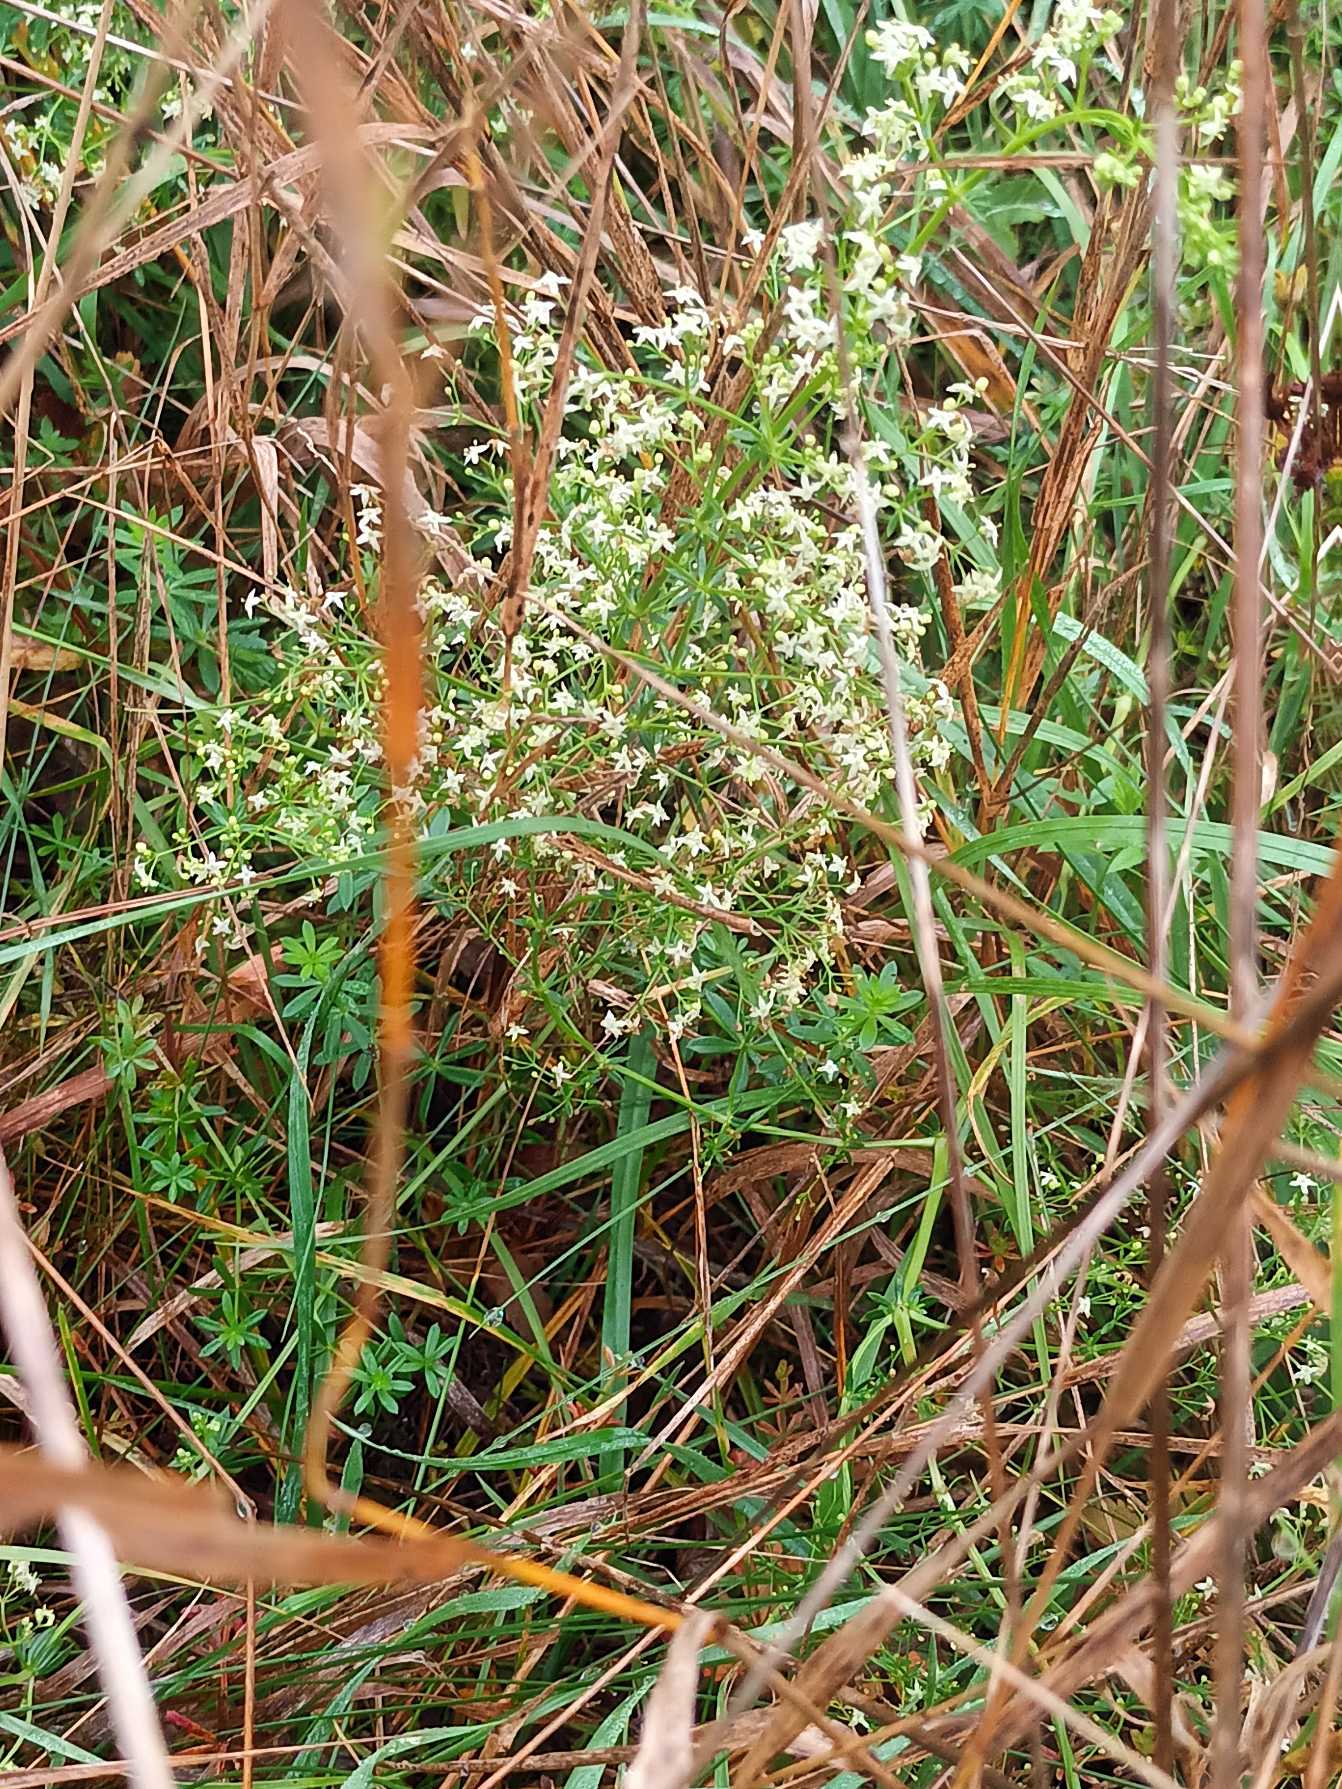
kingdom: Plantae
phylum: Tracheophyta
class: Magnoliopsida
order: Gentianales
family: Rubiaceae
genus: Galium
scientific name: Galium mollugo
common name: Hvid snerre
